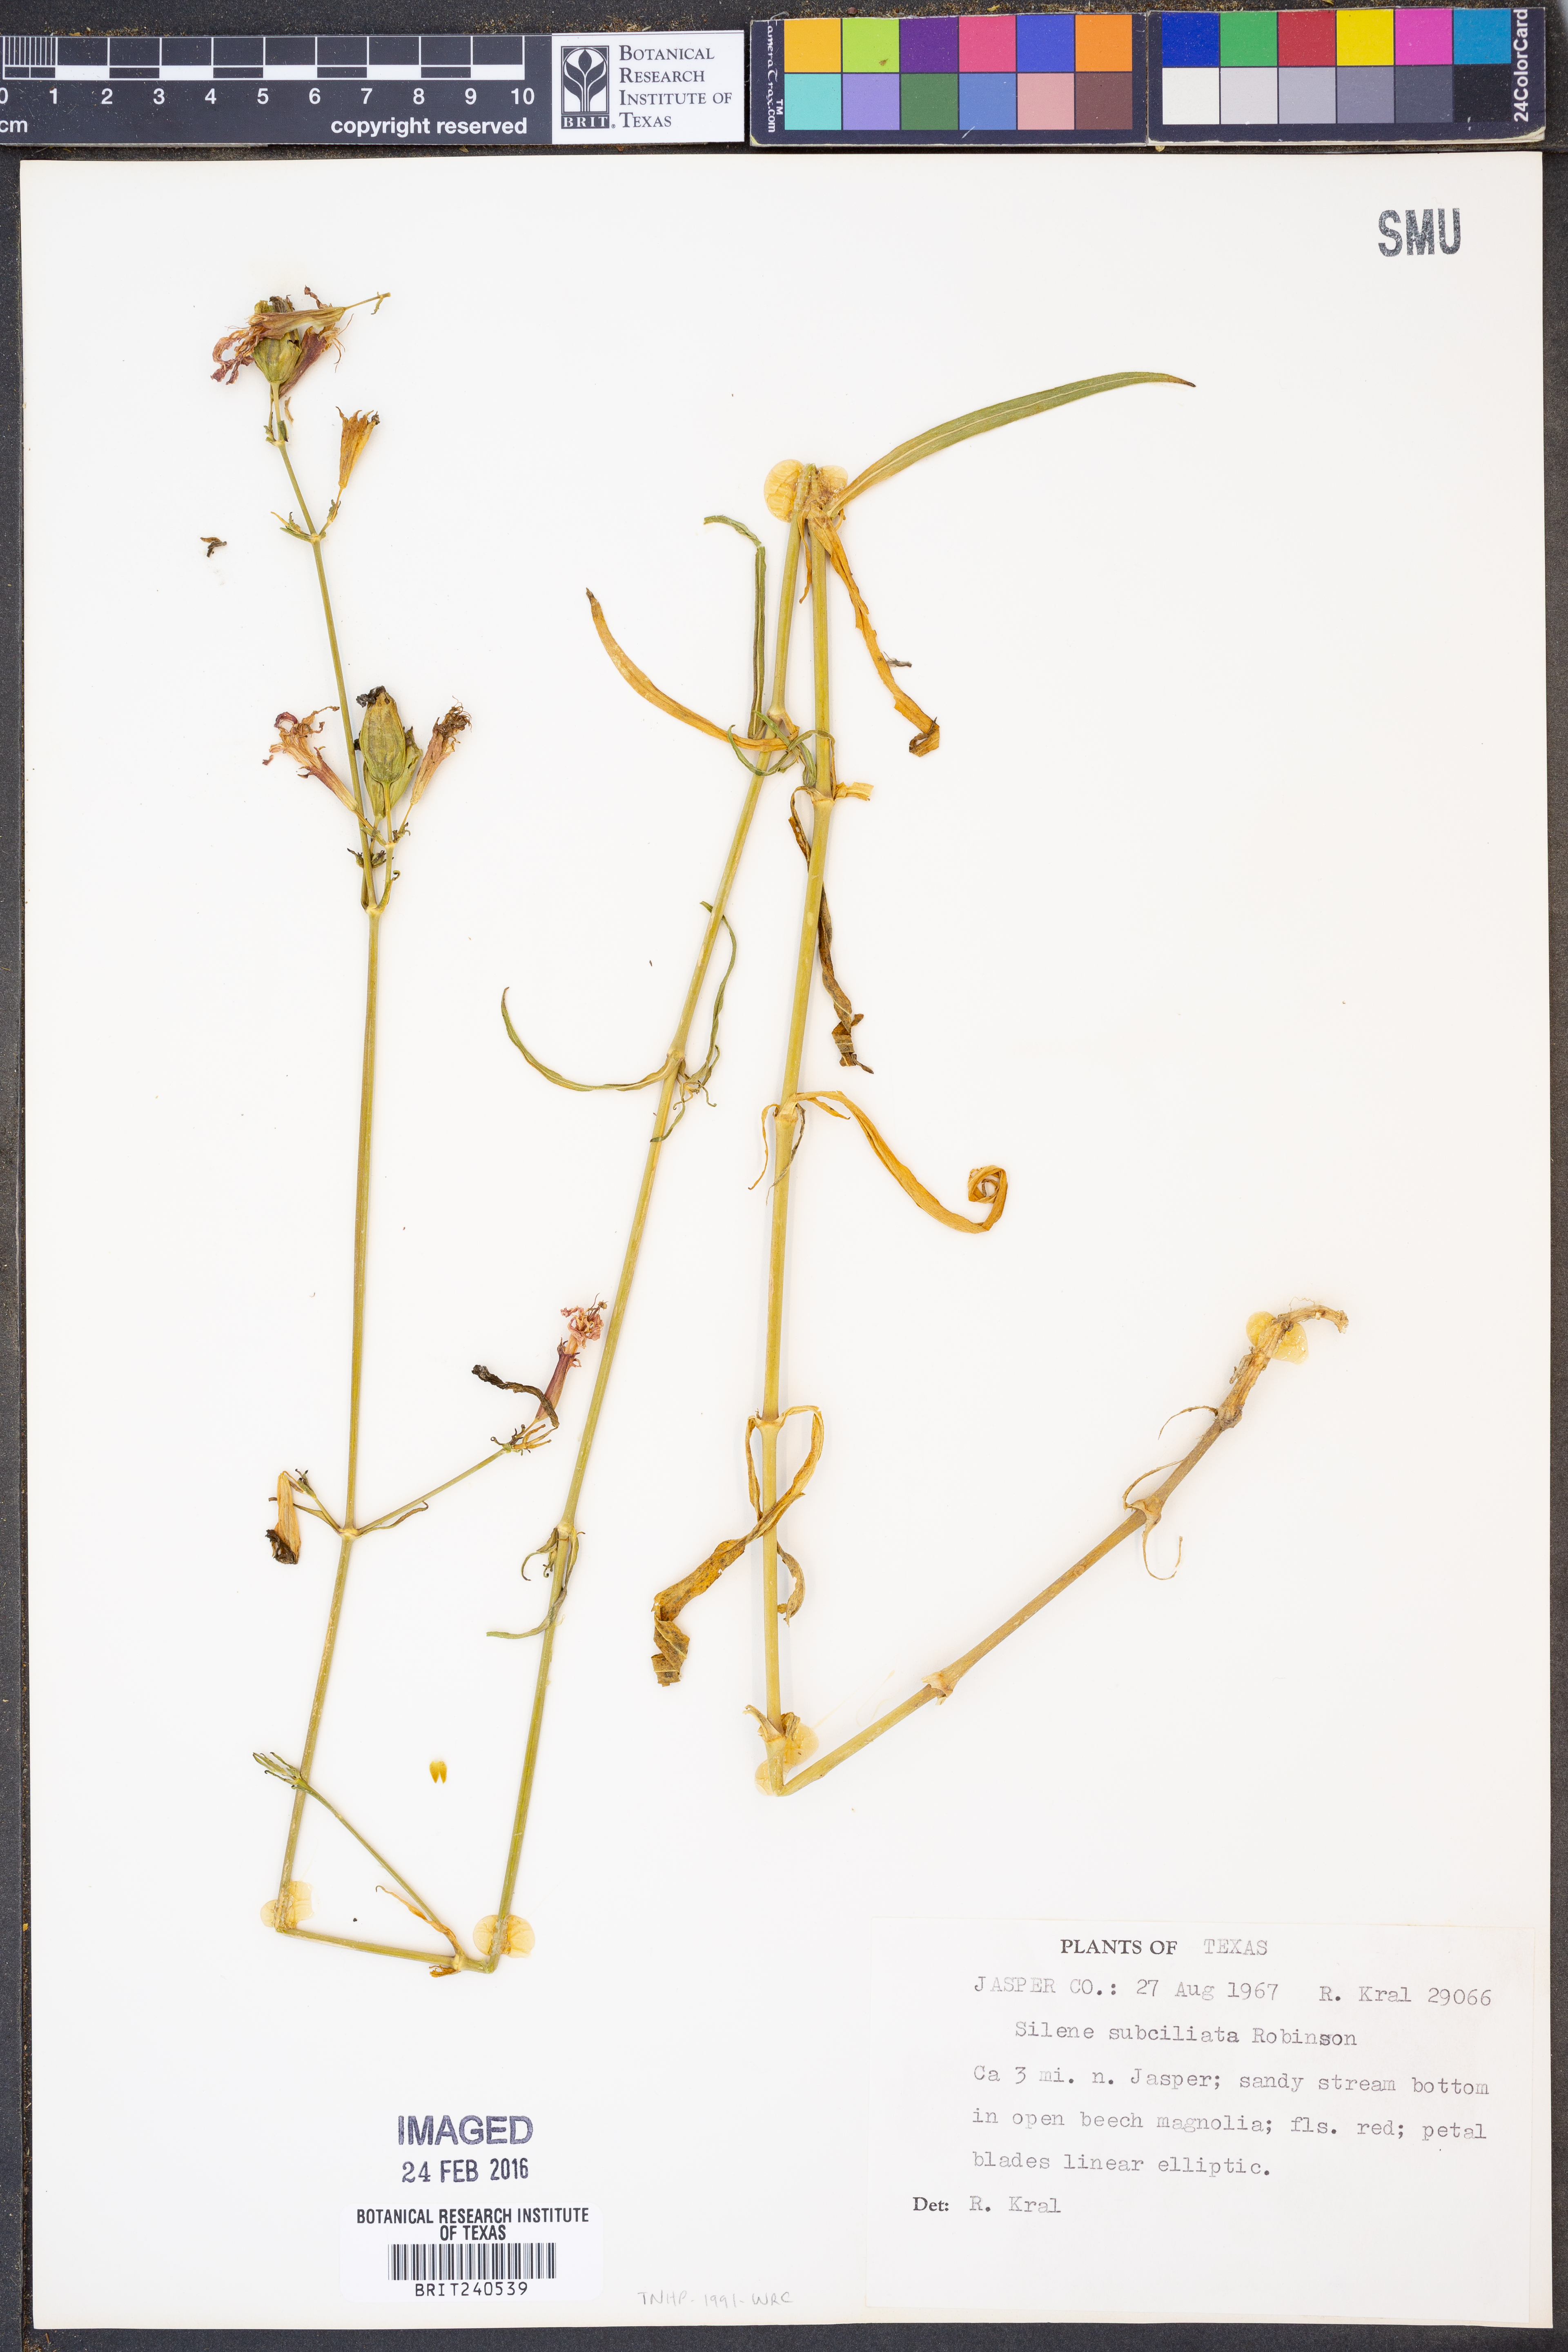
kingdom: Plantae
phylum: Tracheophyta
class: Magnoliopsida
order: Caryophyllales
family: Caryophyllaceae
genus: Silene
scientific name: Silene subciliata
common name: Prairie fire-pink
